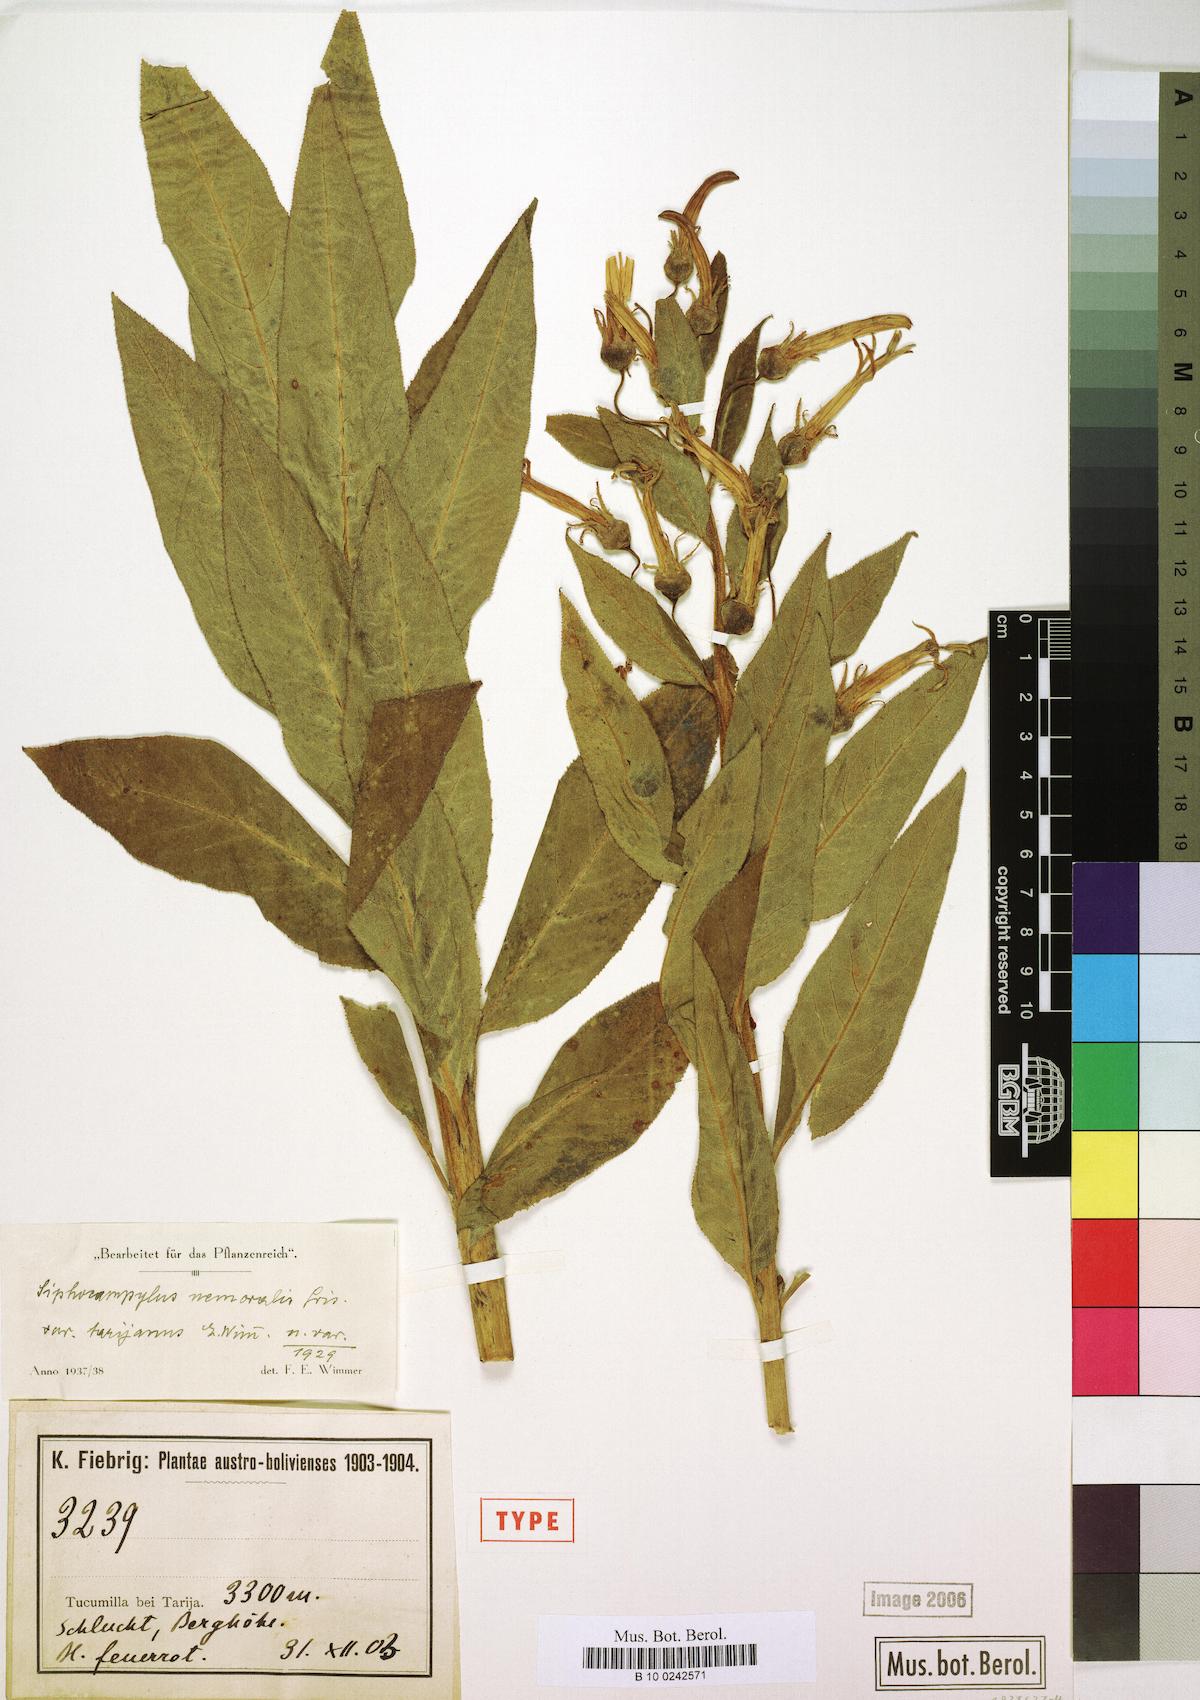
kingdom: Plantae
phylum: Tracheophyta
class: Magnoliopsida
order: Asterales
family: Campanulaceae
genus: Siphocampylus
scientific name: Siphocampylus nemoralis
